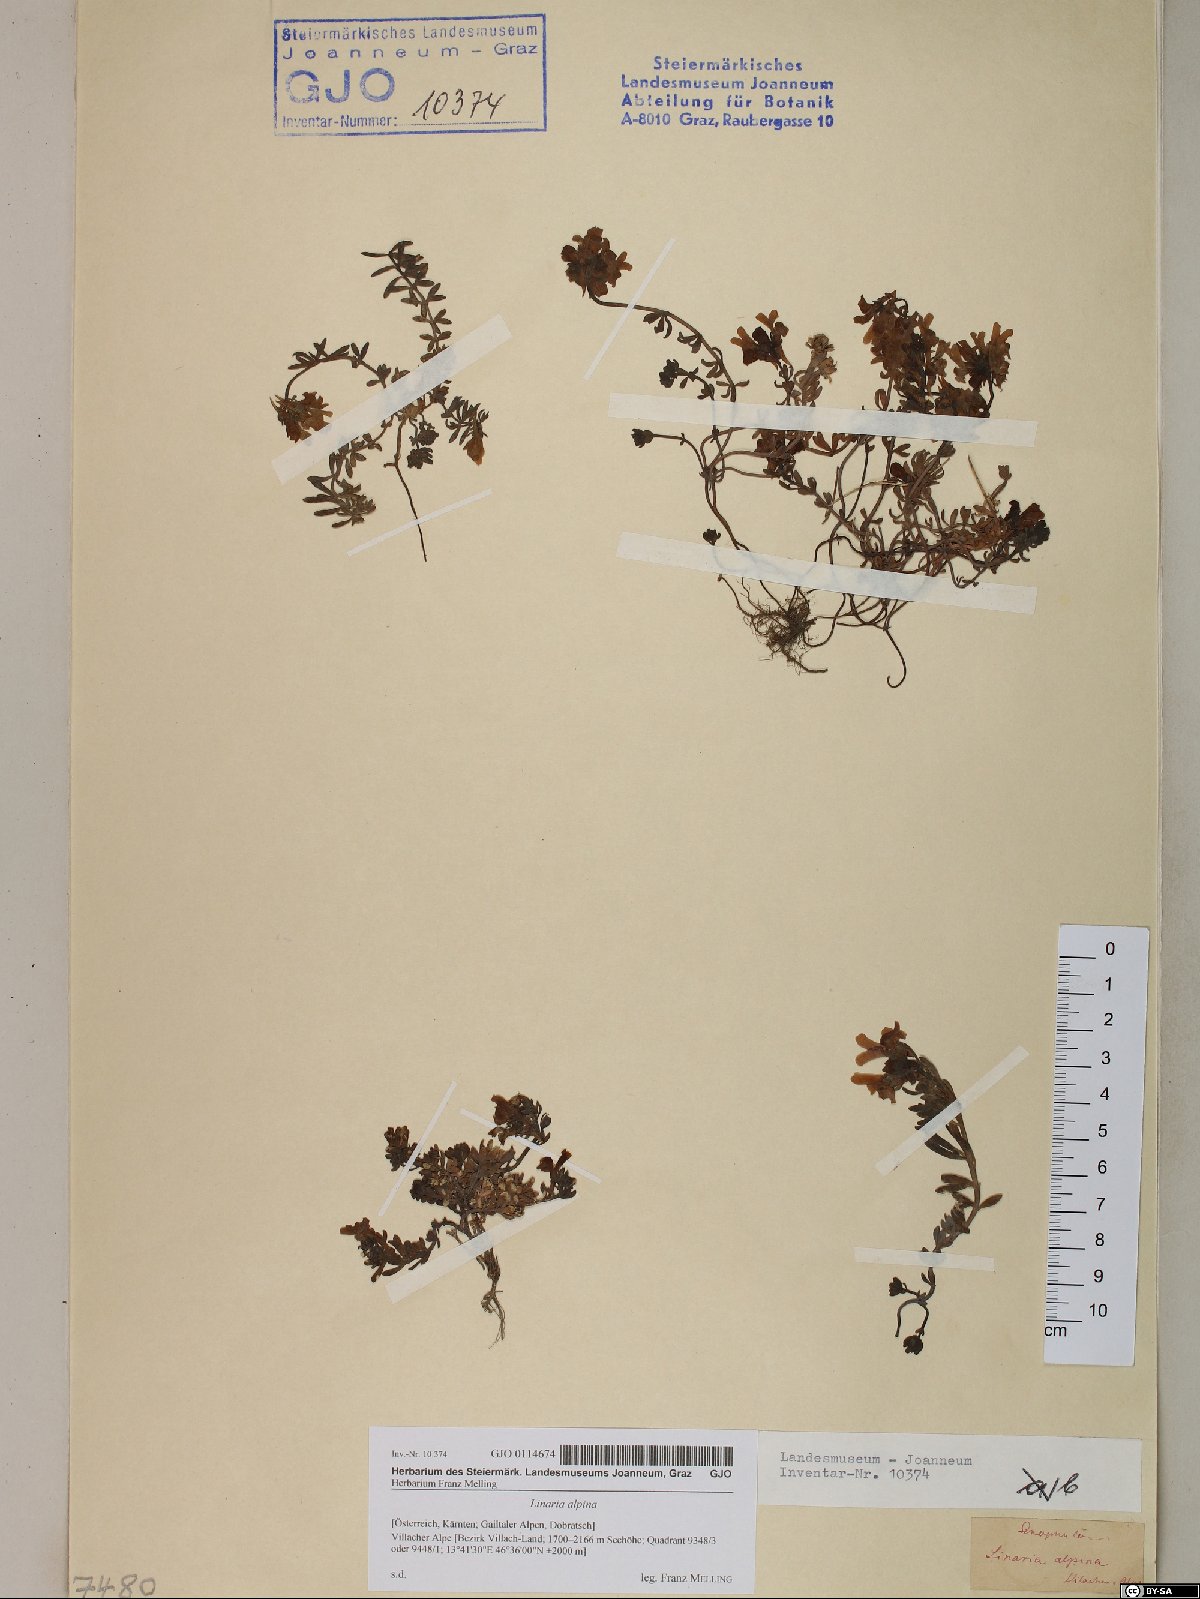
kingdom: Plantae
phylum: Tracheophyta
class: Magnoliopsida
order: Lamiales
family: Plantaginaceae
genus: Linaria
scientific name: Linaria alpina
